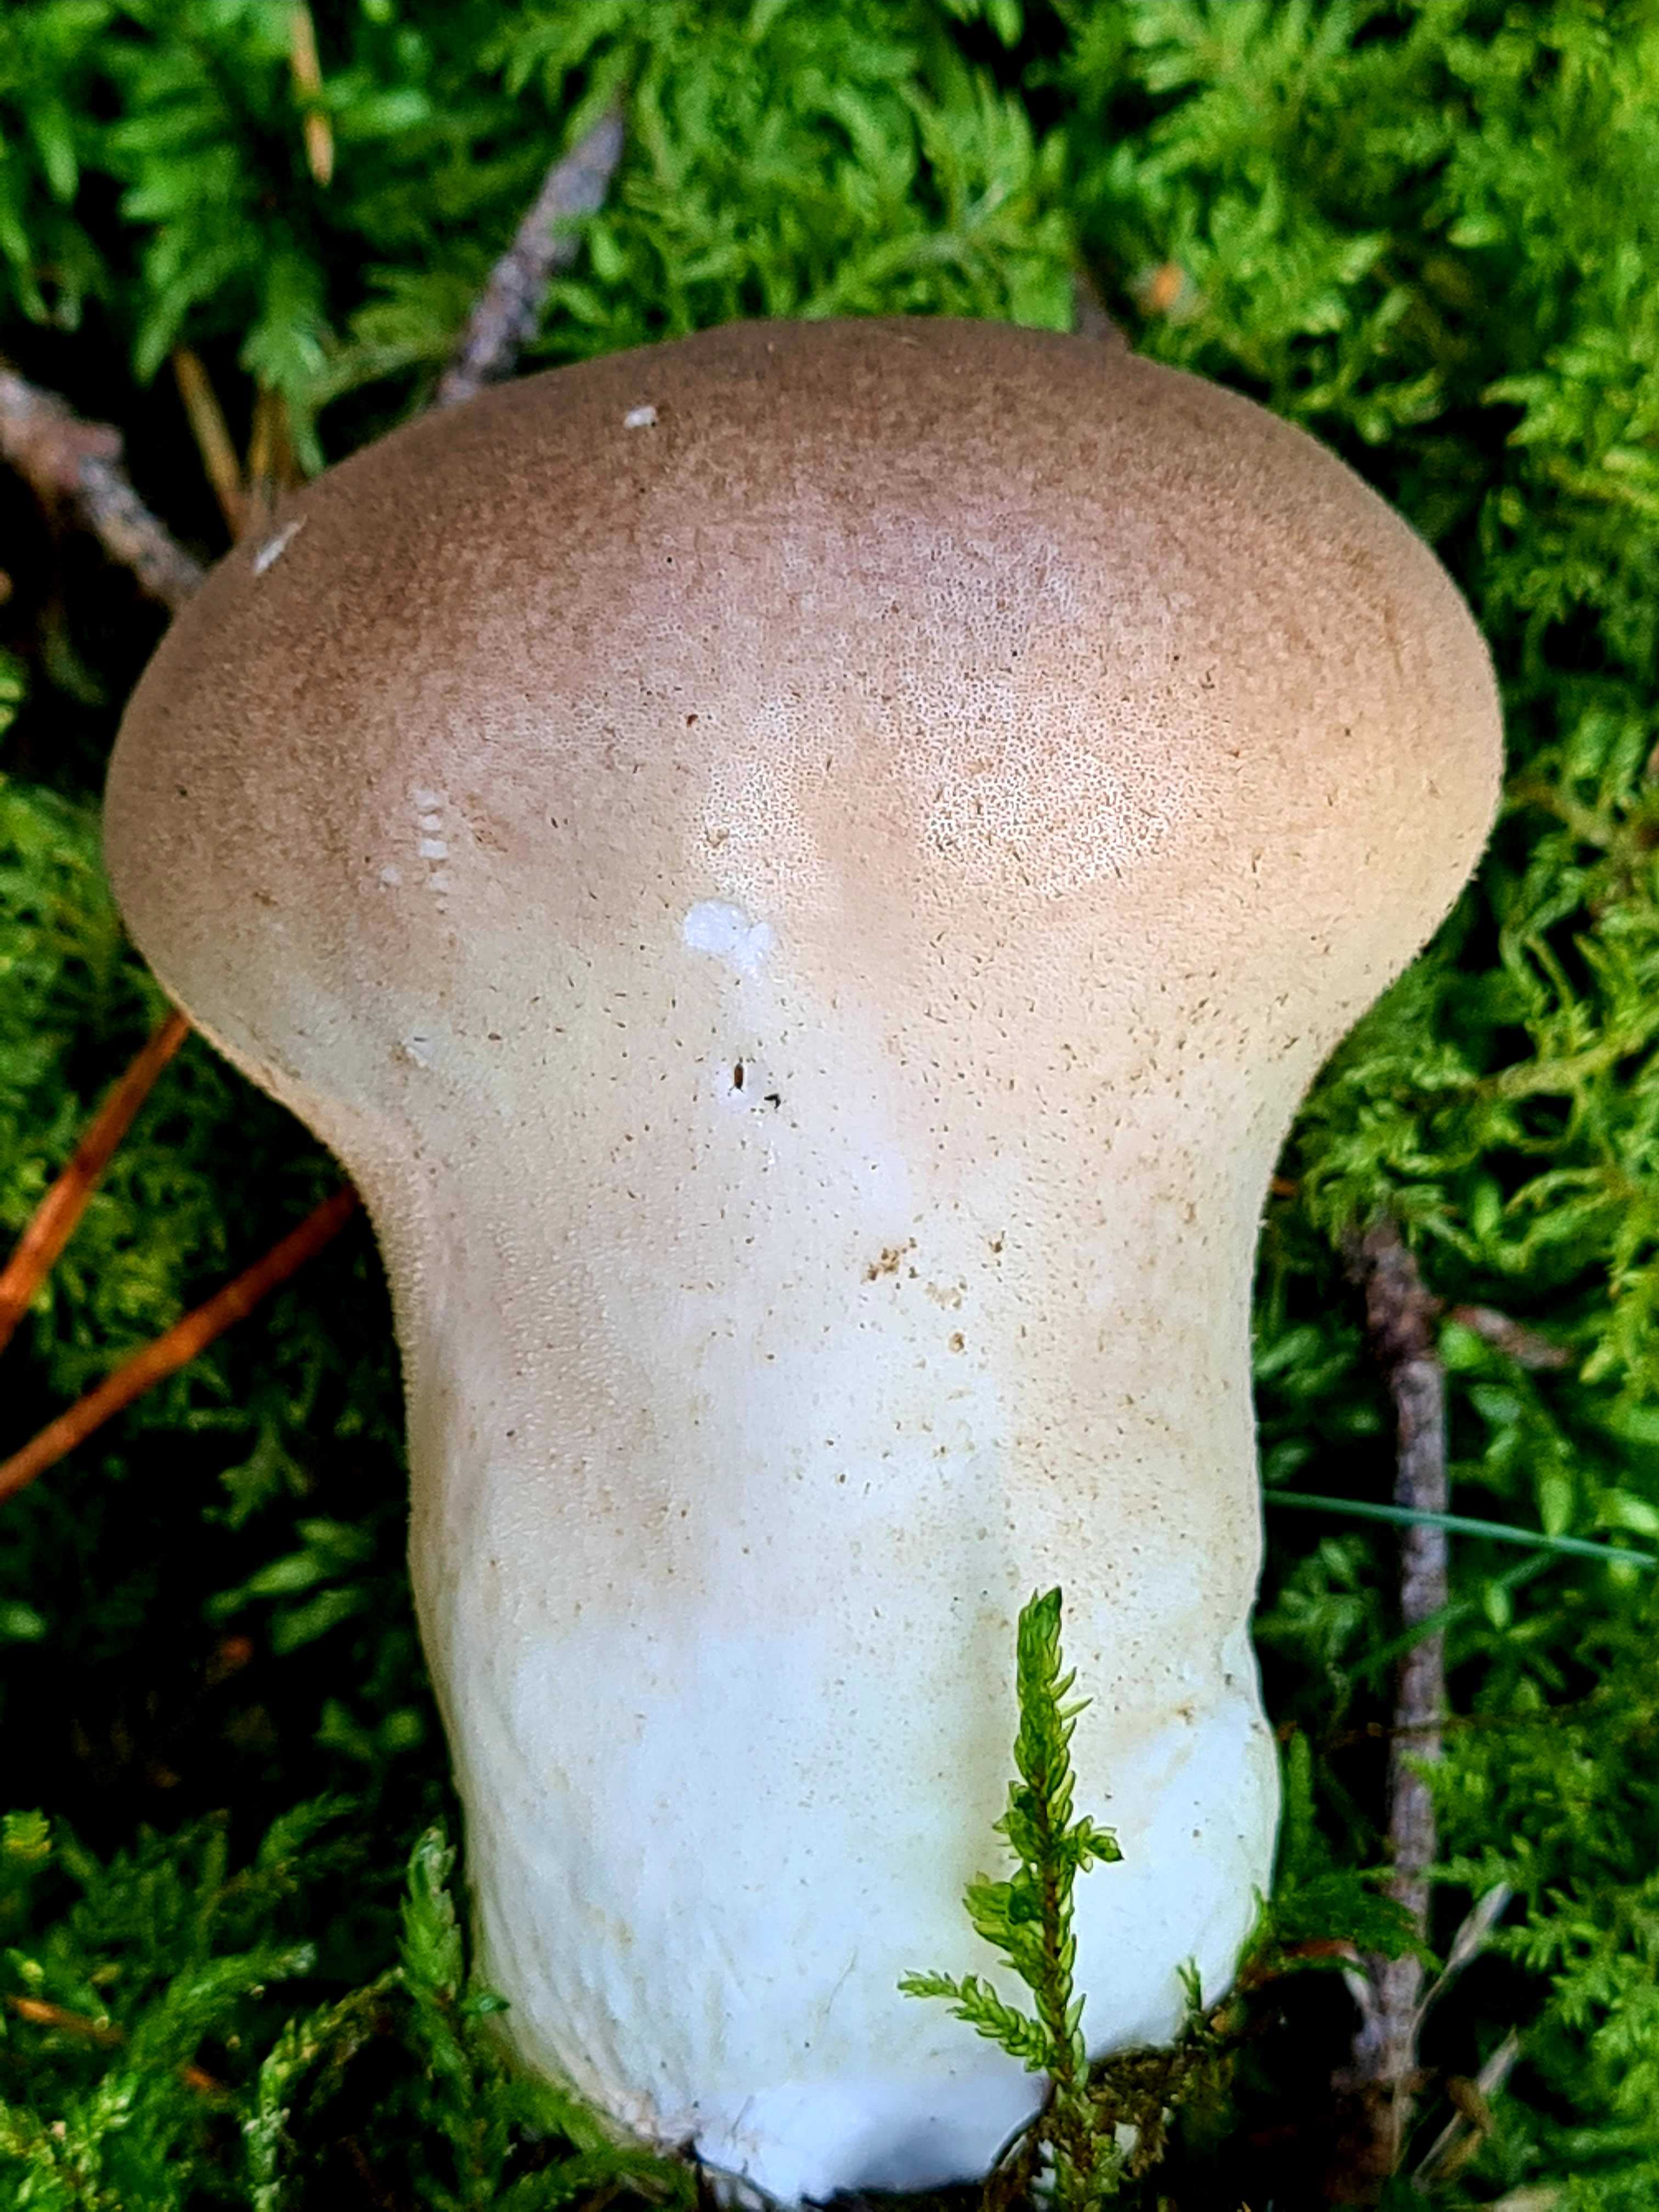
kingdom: Fungi
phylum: Basidiomycota
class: Agaricomycetes
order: Agaricales
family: Lycoperdaceae
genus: Lycoperdon
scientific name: Lycoperdon excipuliforme
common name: højstokket støvbold
